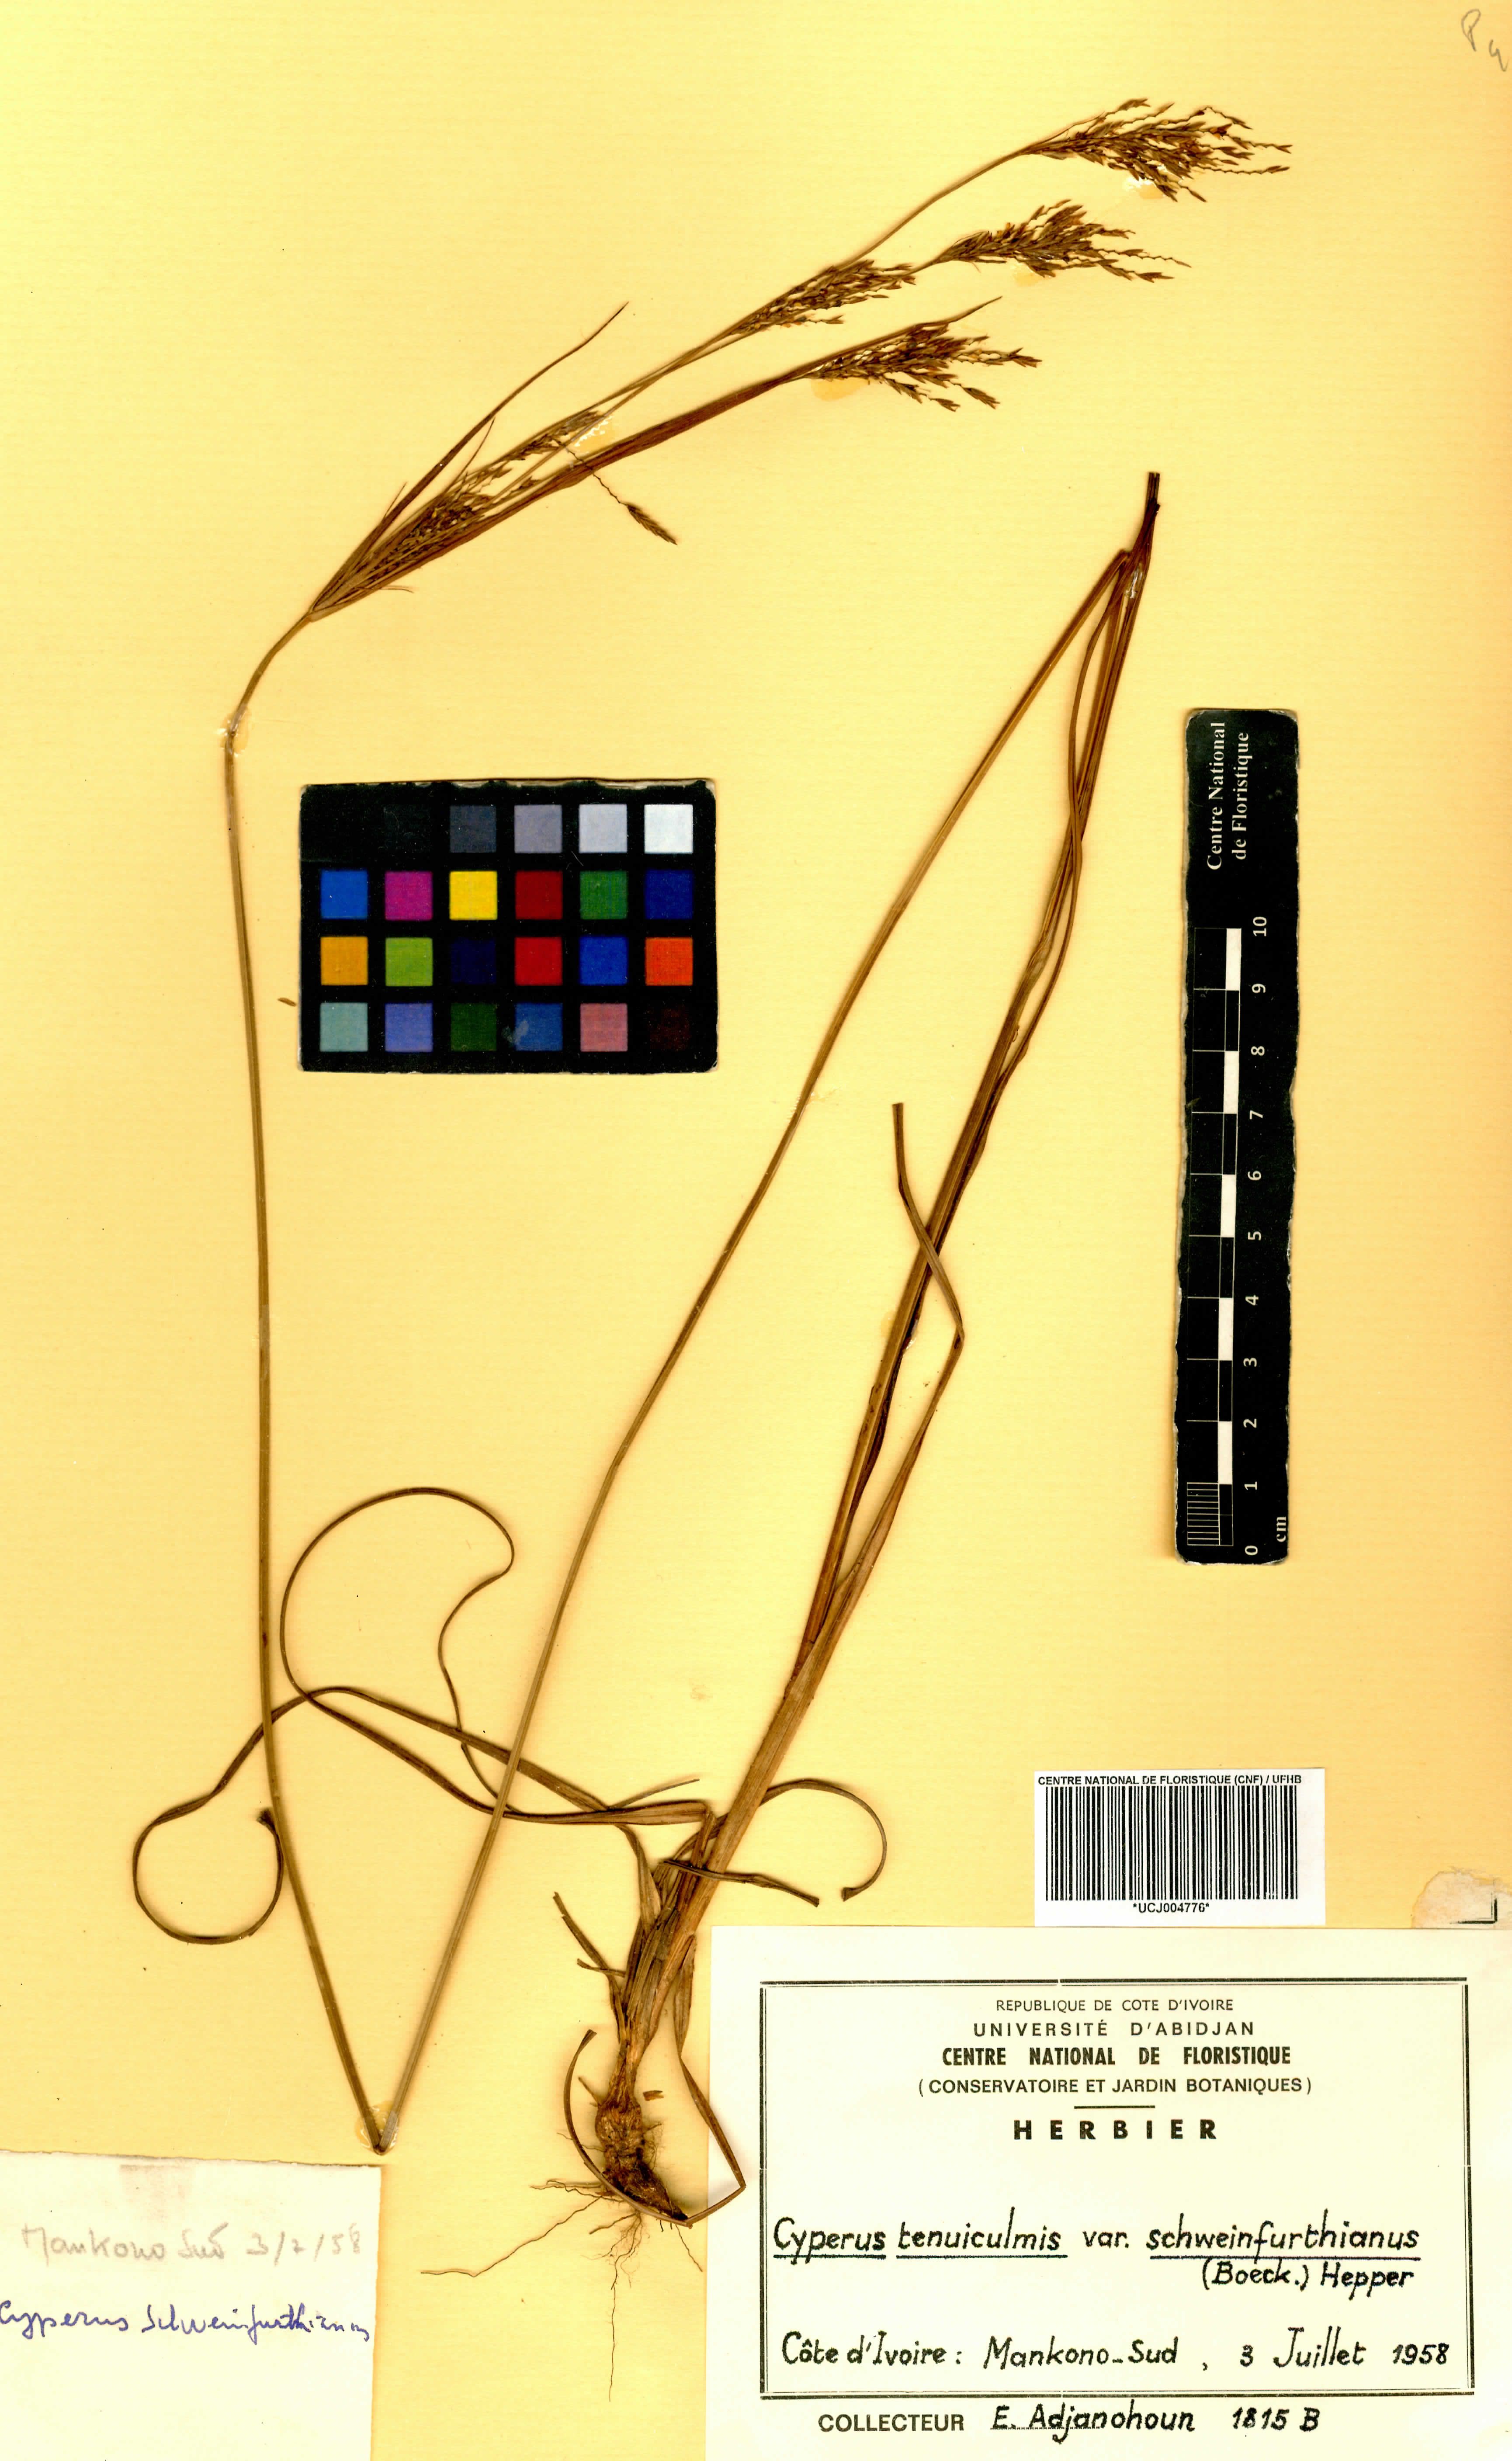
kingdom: Plantae
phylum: Tracheophyta
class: Liliopsida
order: Poales
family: Cyperaceae
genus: Cyperus
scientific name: Cyperus tenuiculmis
